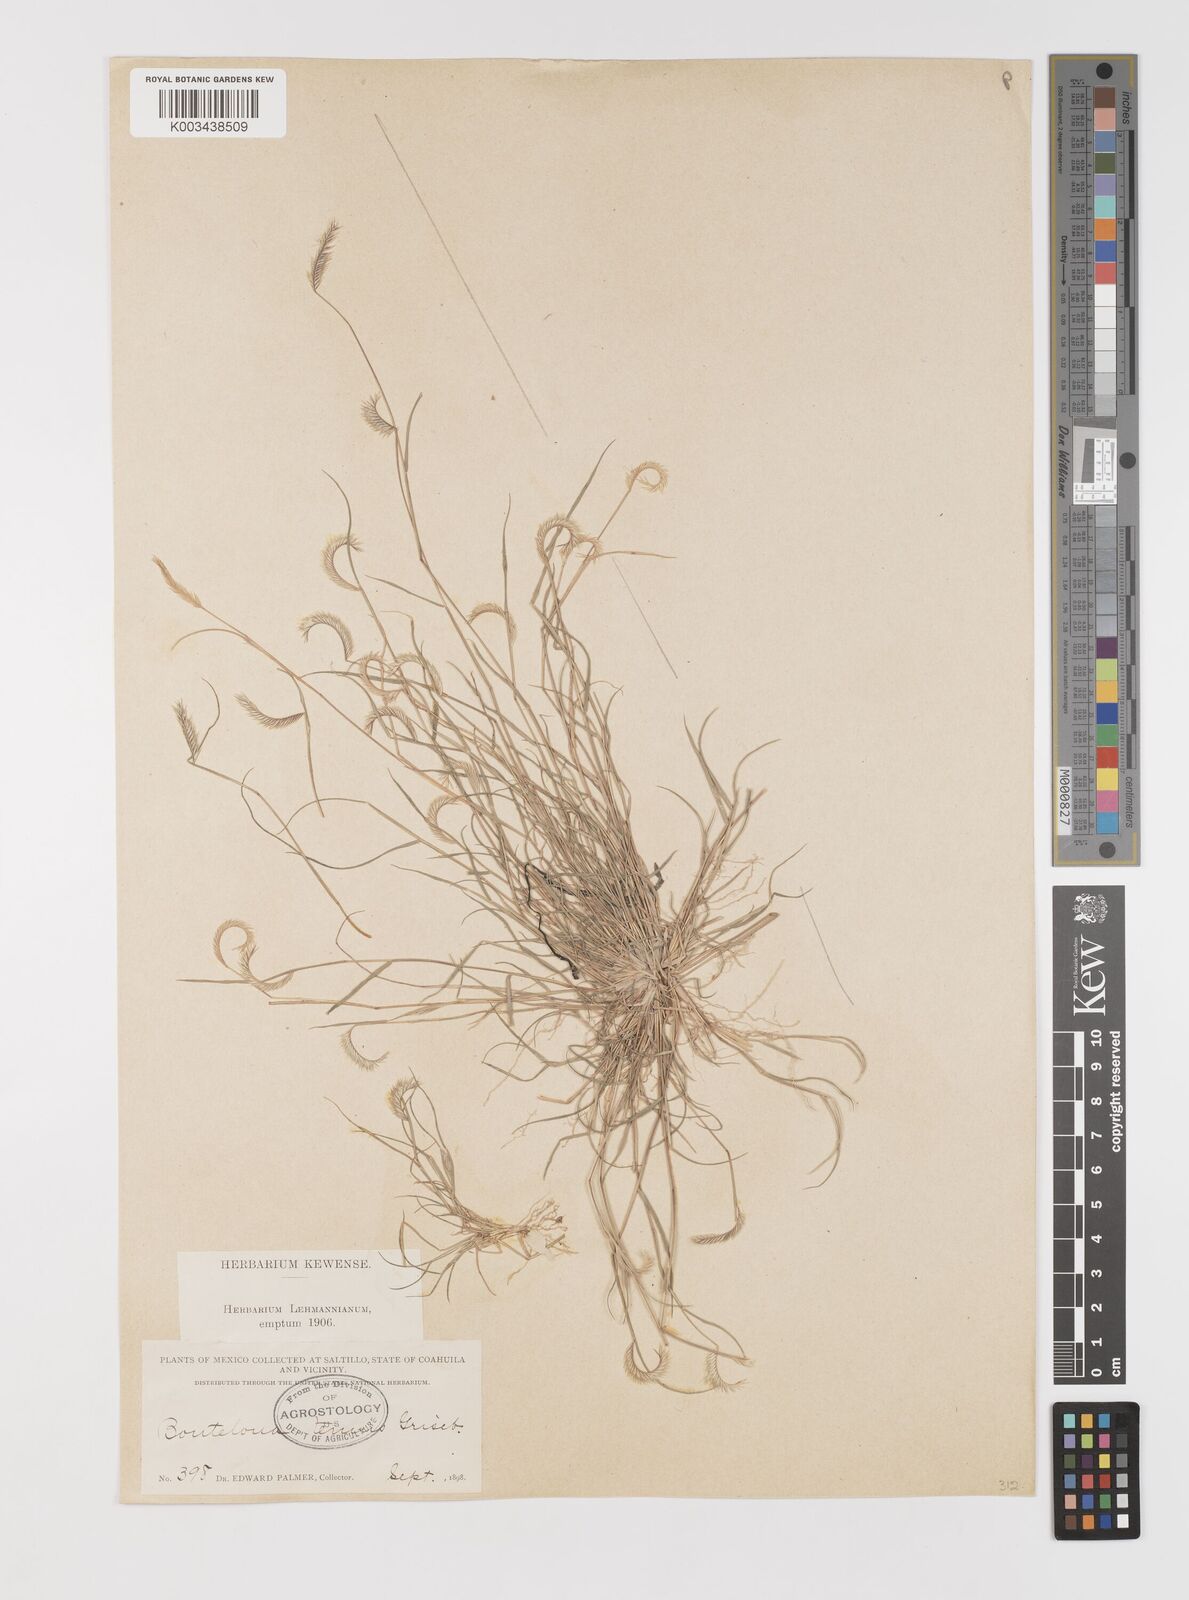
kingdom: Plantae
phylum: Tracheophyta
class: Liliopsida
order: Poales
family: Poaceae
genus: Bouteloua
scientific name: Bouteloua simplex
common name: Mat grama
